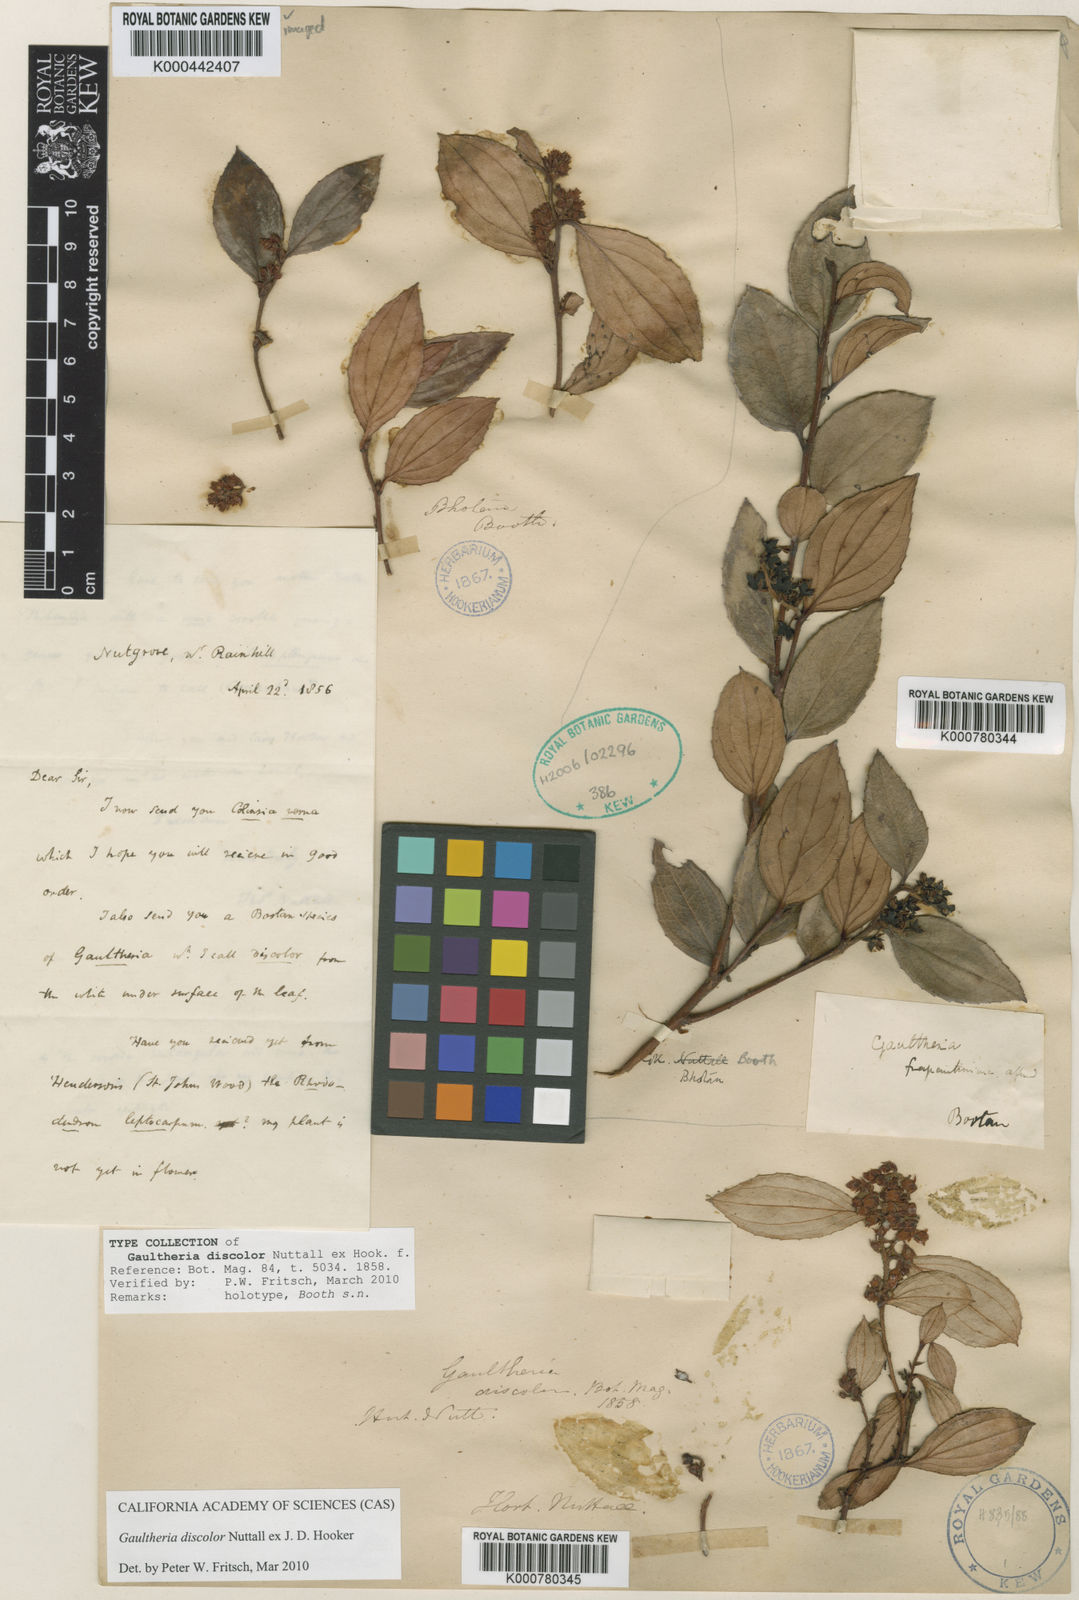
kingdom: Plantae
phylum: Tracheophyta
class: Magnoliopsida
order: Ericales
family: Ericaceae
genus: Gaultheria
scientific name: Gaultheria discolor
